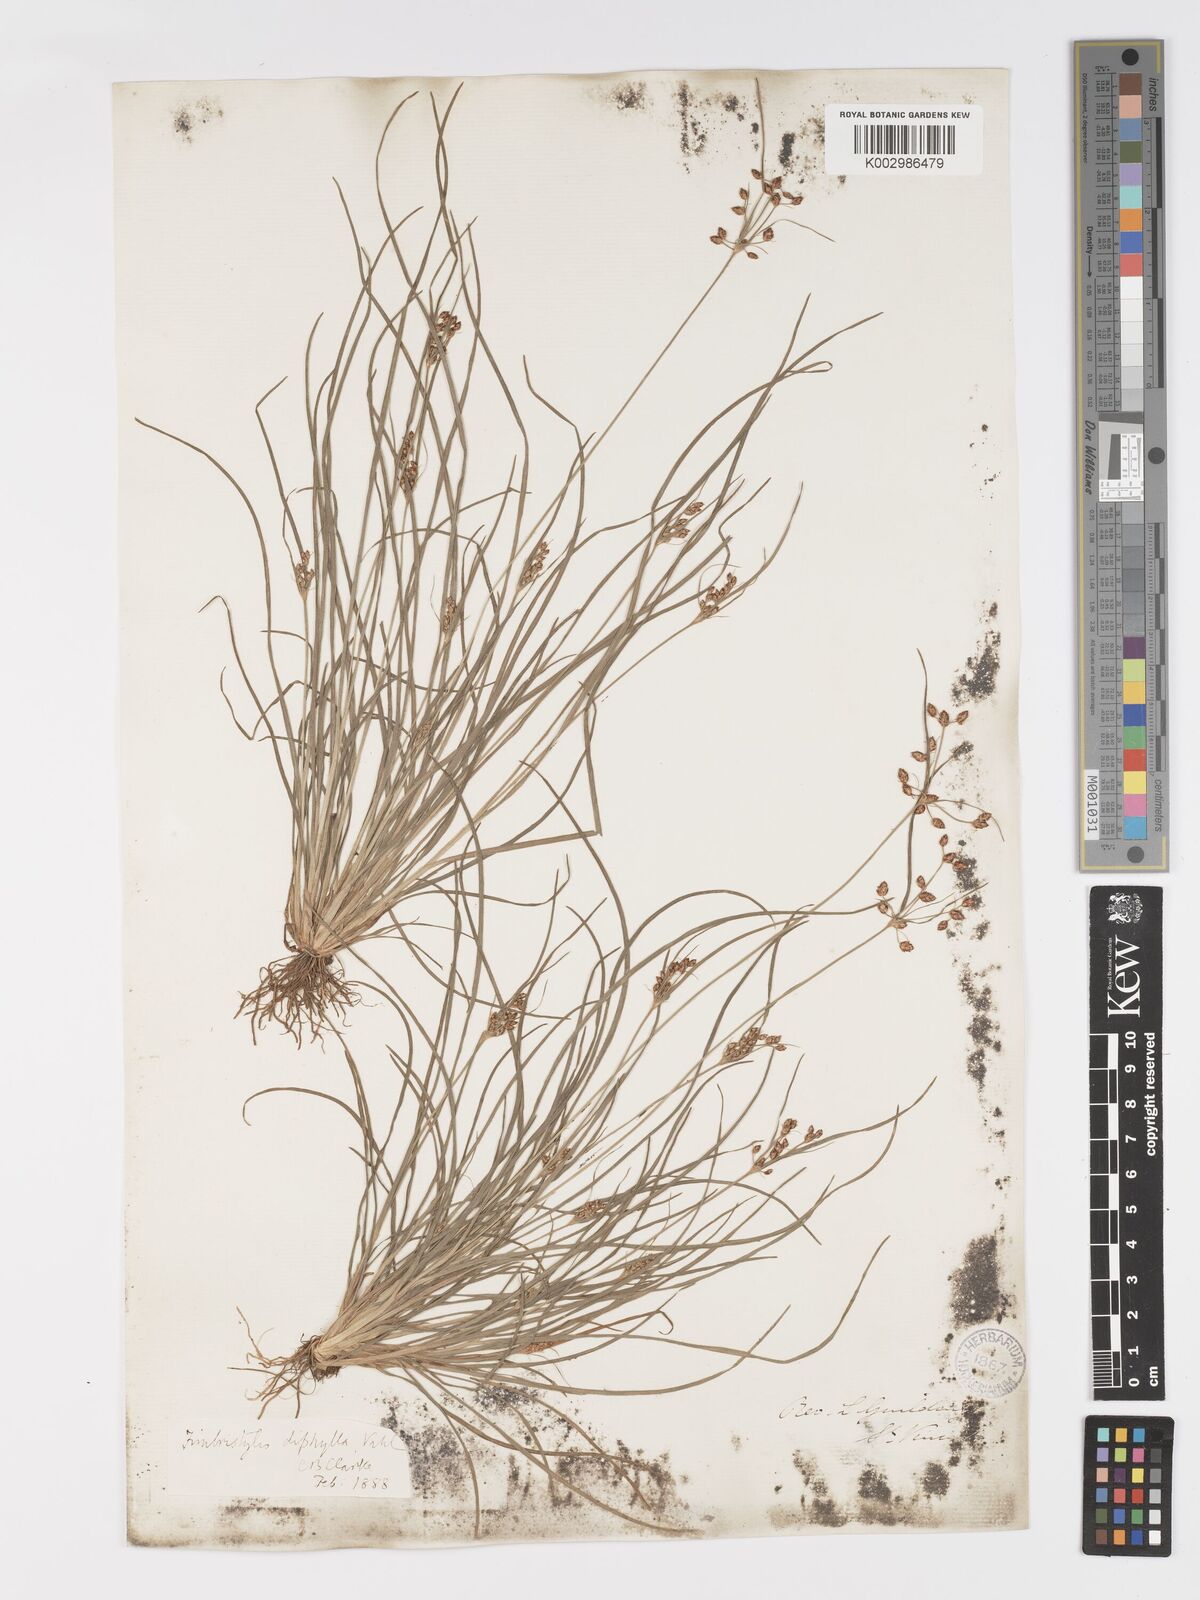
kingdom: Plantae
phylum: Tracheophyta
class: Liliopsida
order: Poales
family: Cyperaceae
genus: Fimbristylis
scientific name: Fimbristylis dichotoma
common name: Forked fimbry
